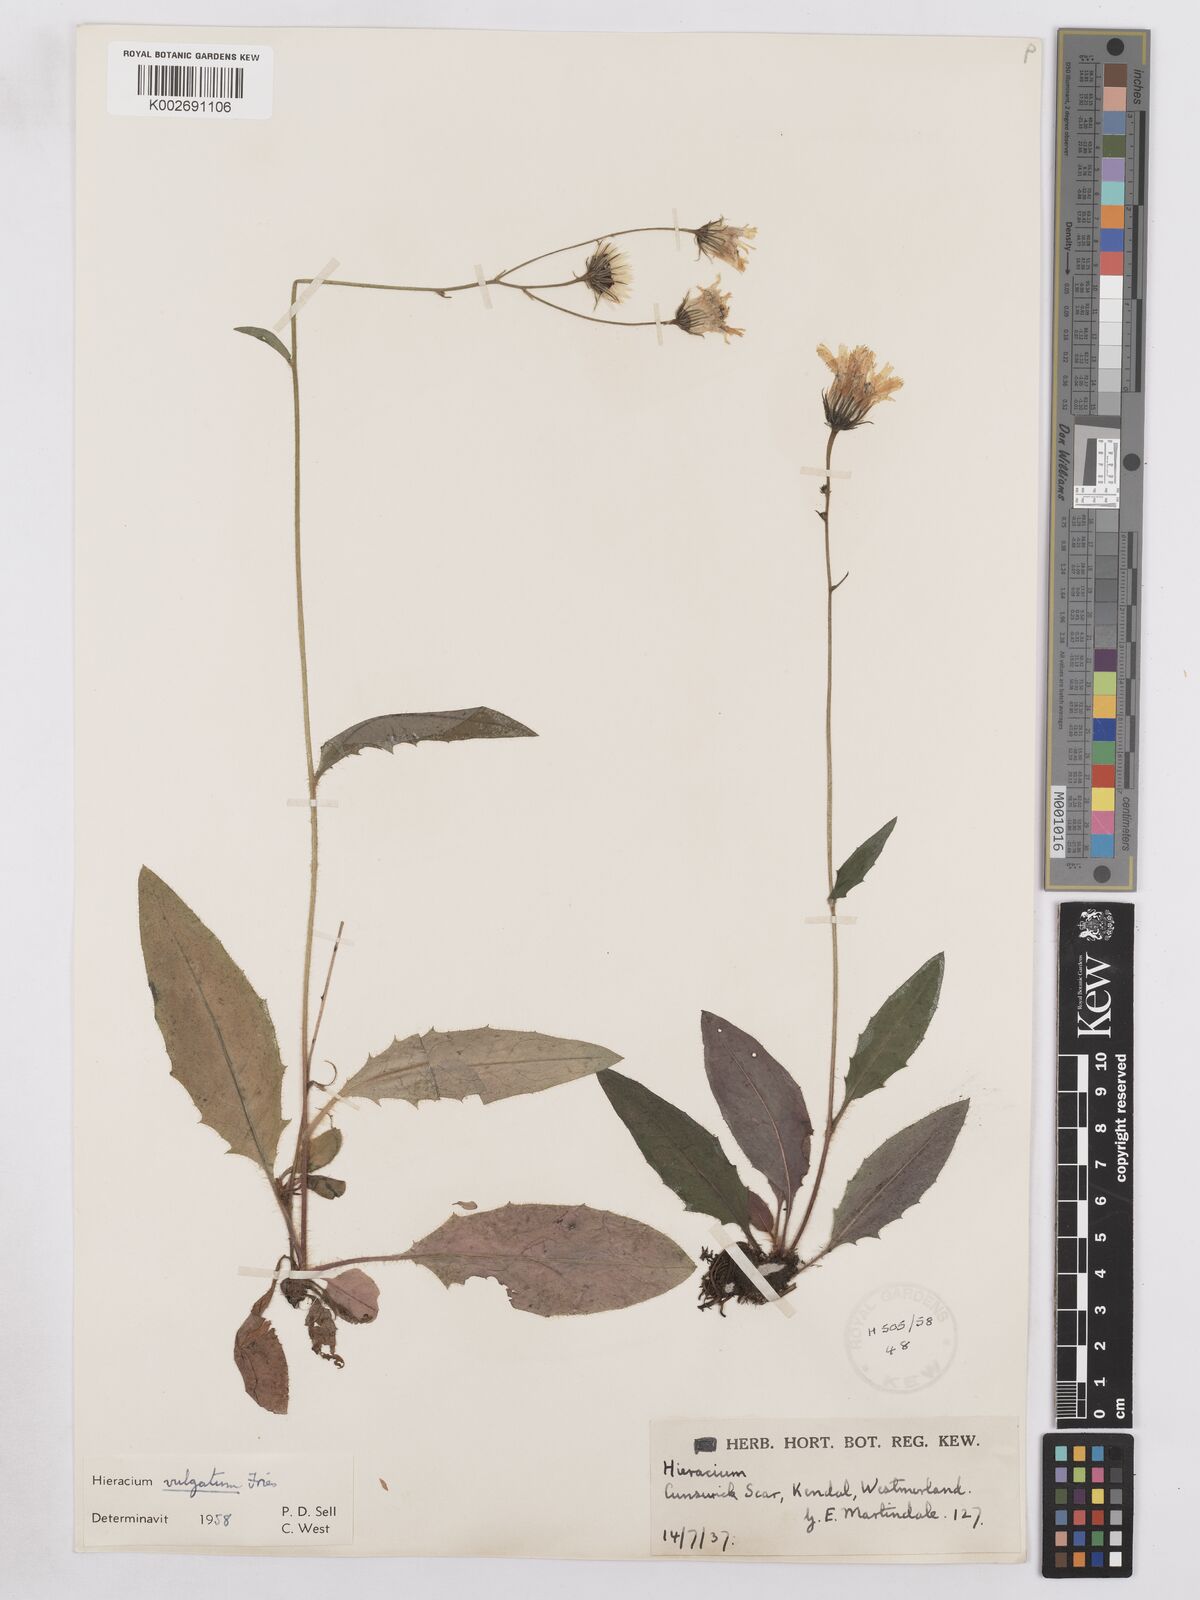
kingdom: Plantae
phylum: Tracheophyta
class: Magnoliopsida
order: Asterales
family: Asteraceae
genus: Hieracium
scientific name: Hieracium lachenalii
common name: Common hawkweed
